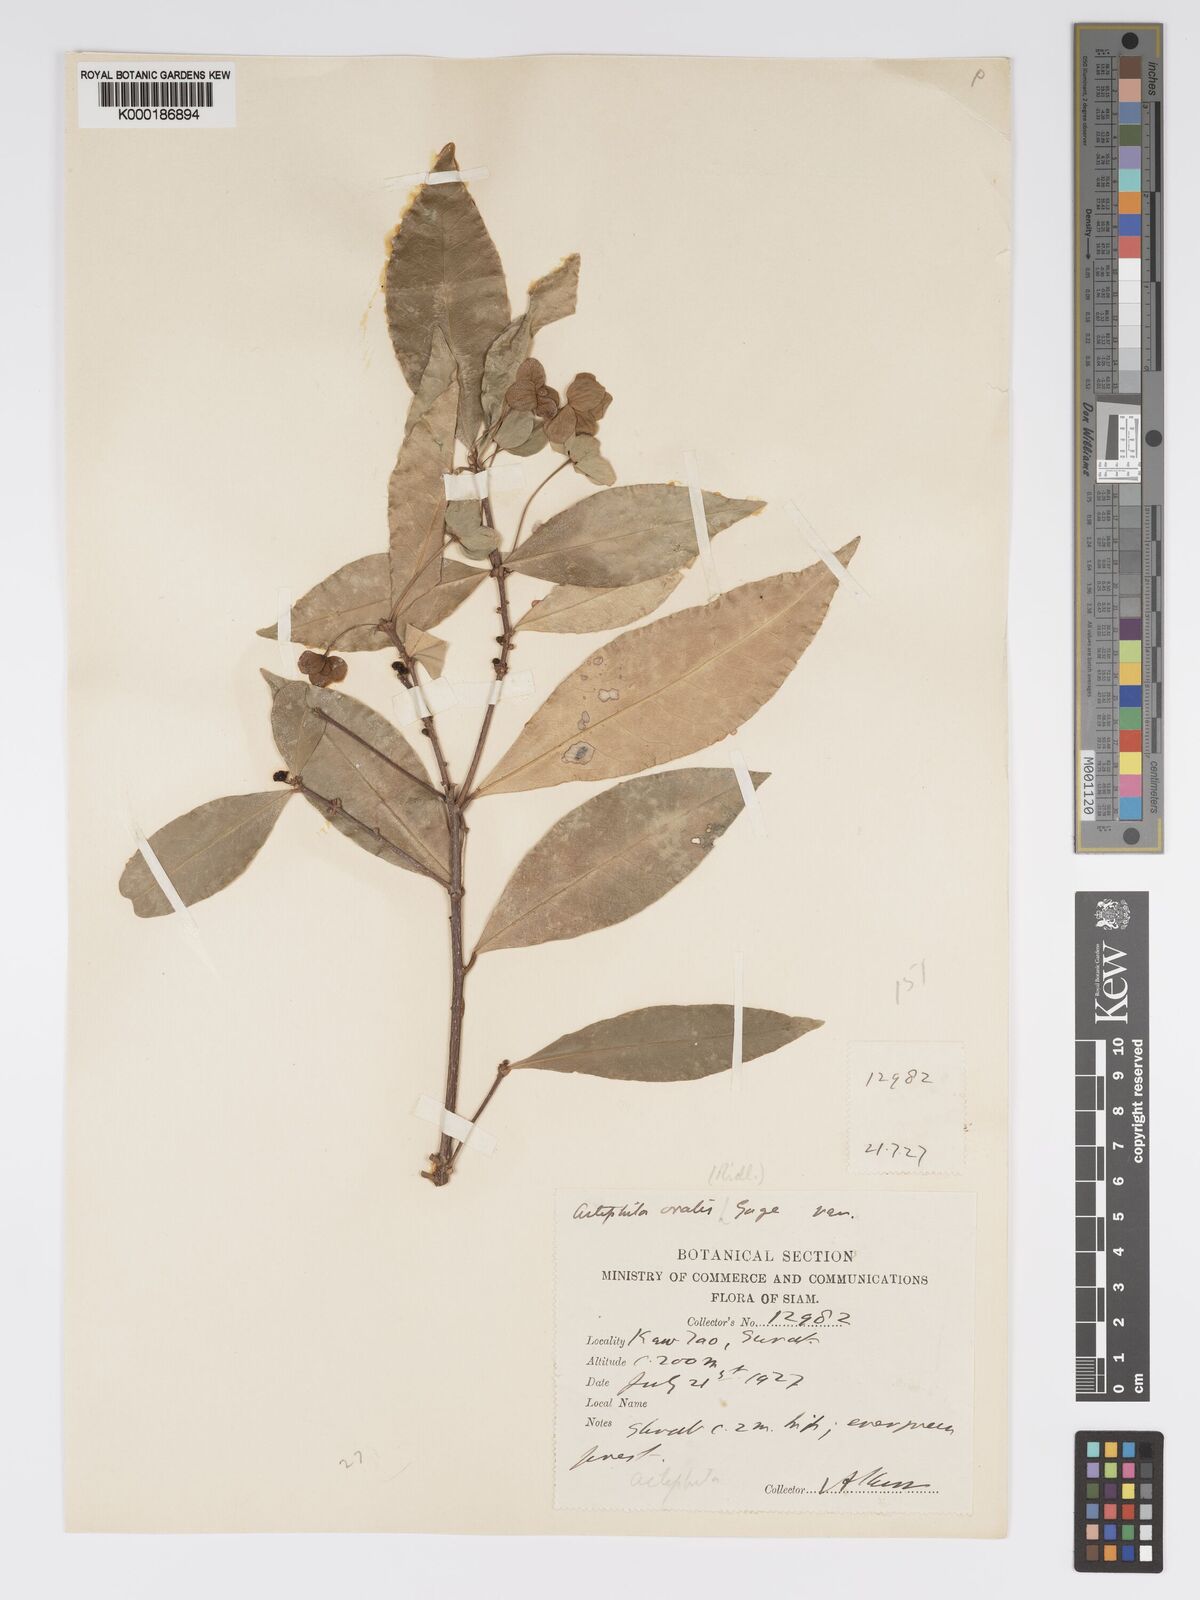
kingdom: Plantae
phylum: Tracheophyta
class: Magnoliopsida
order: Malpighiales
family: Phyllanthaceae
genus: Actephila
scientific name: Actephila ovalis
